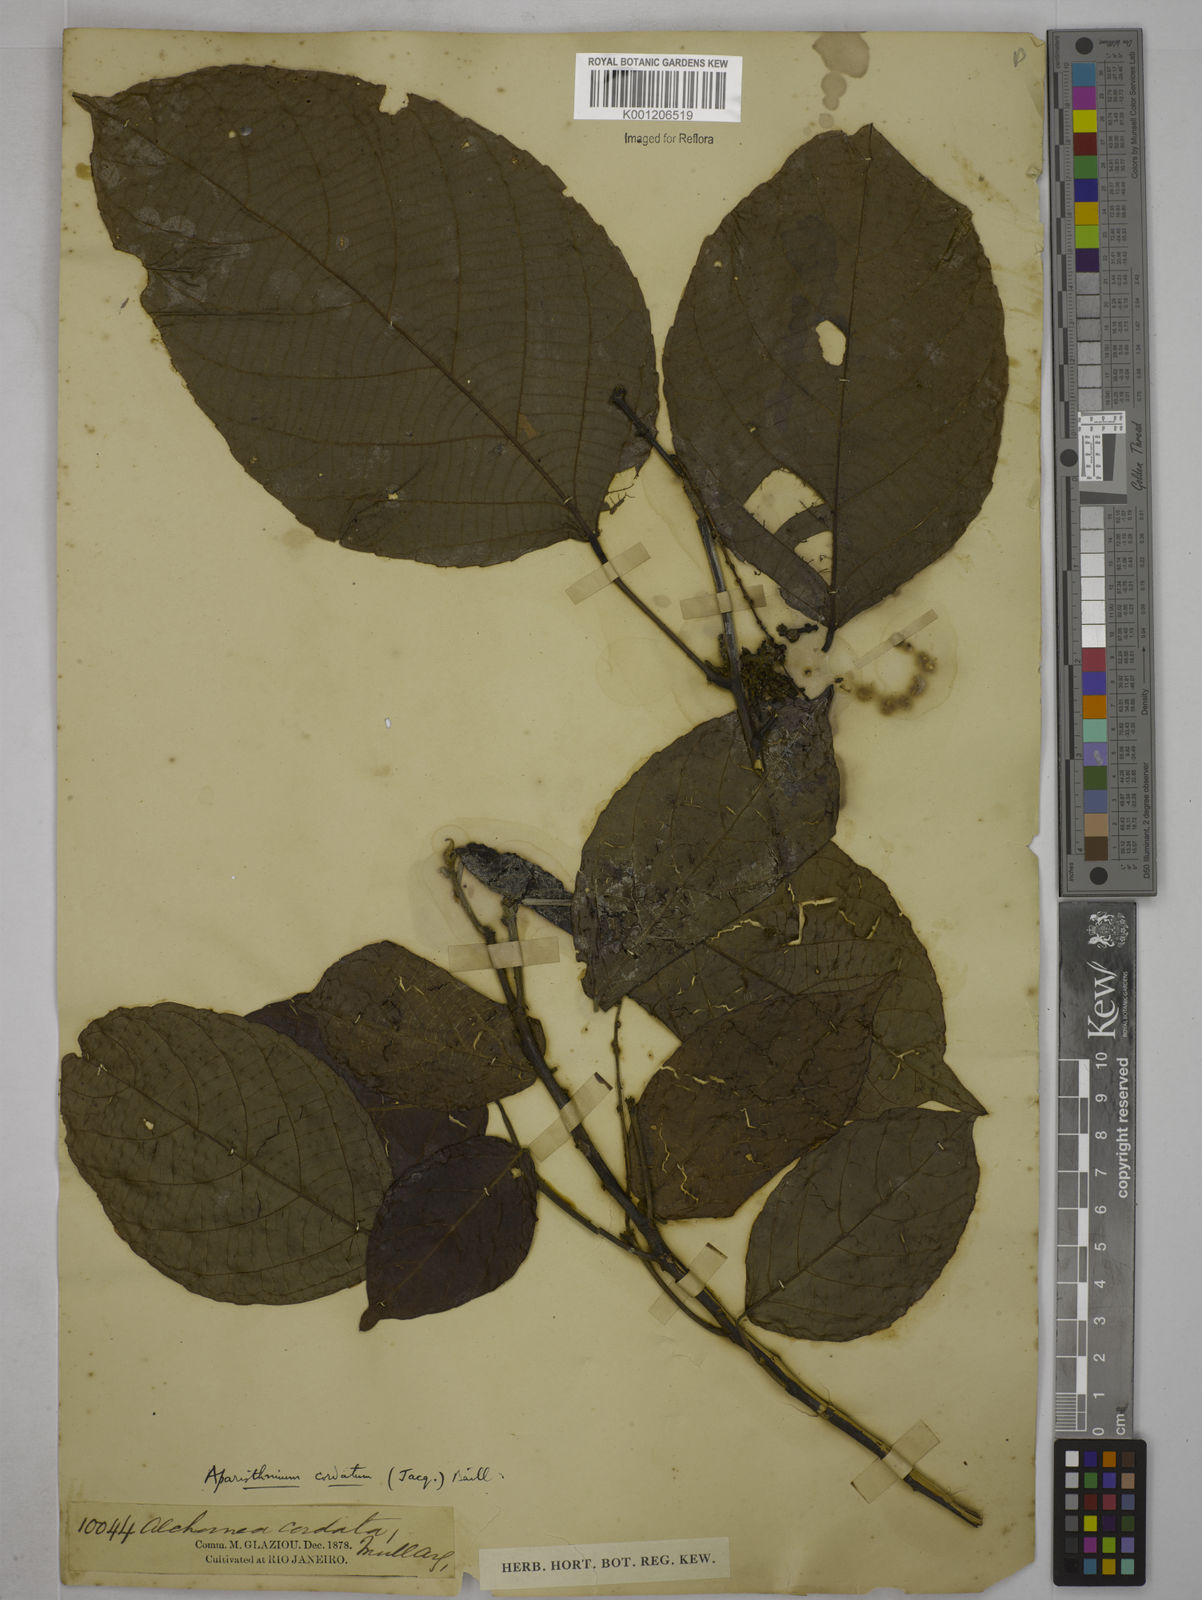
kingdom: Plantae
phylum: Tracheophyta
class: Magnoliopsida
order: Malpighiales
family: Euphorbiaceae
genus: Aparisthmium
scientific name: Aparisthmium cordatum
